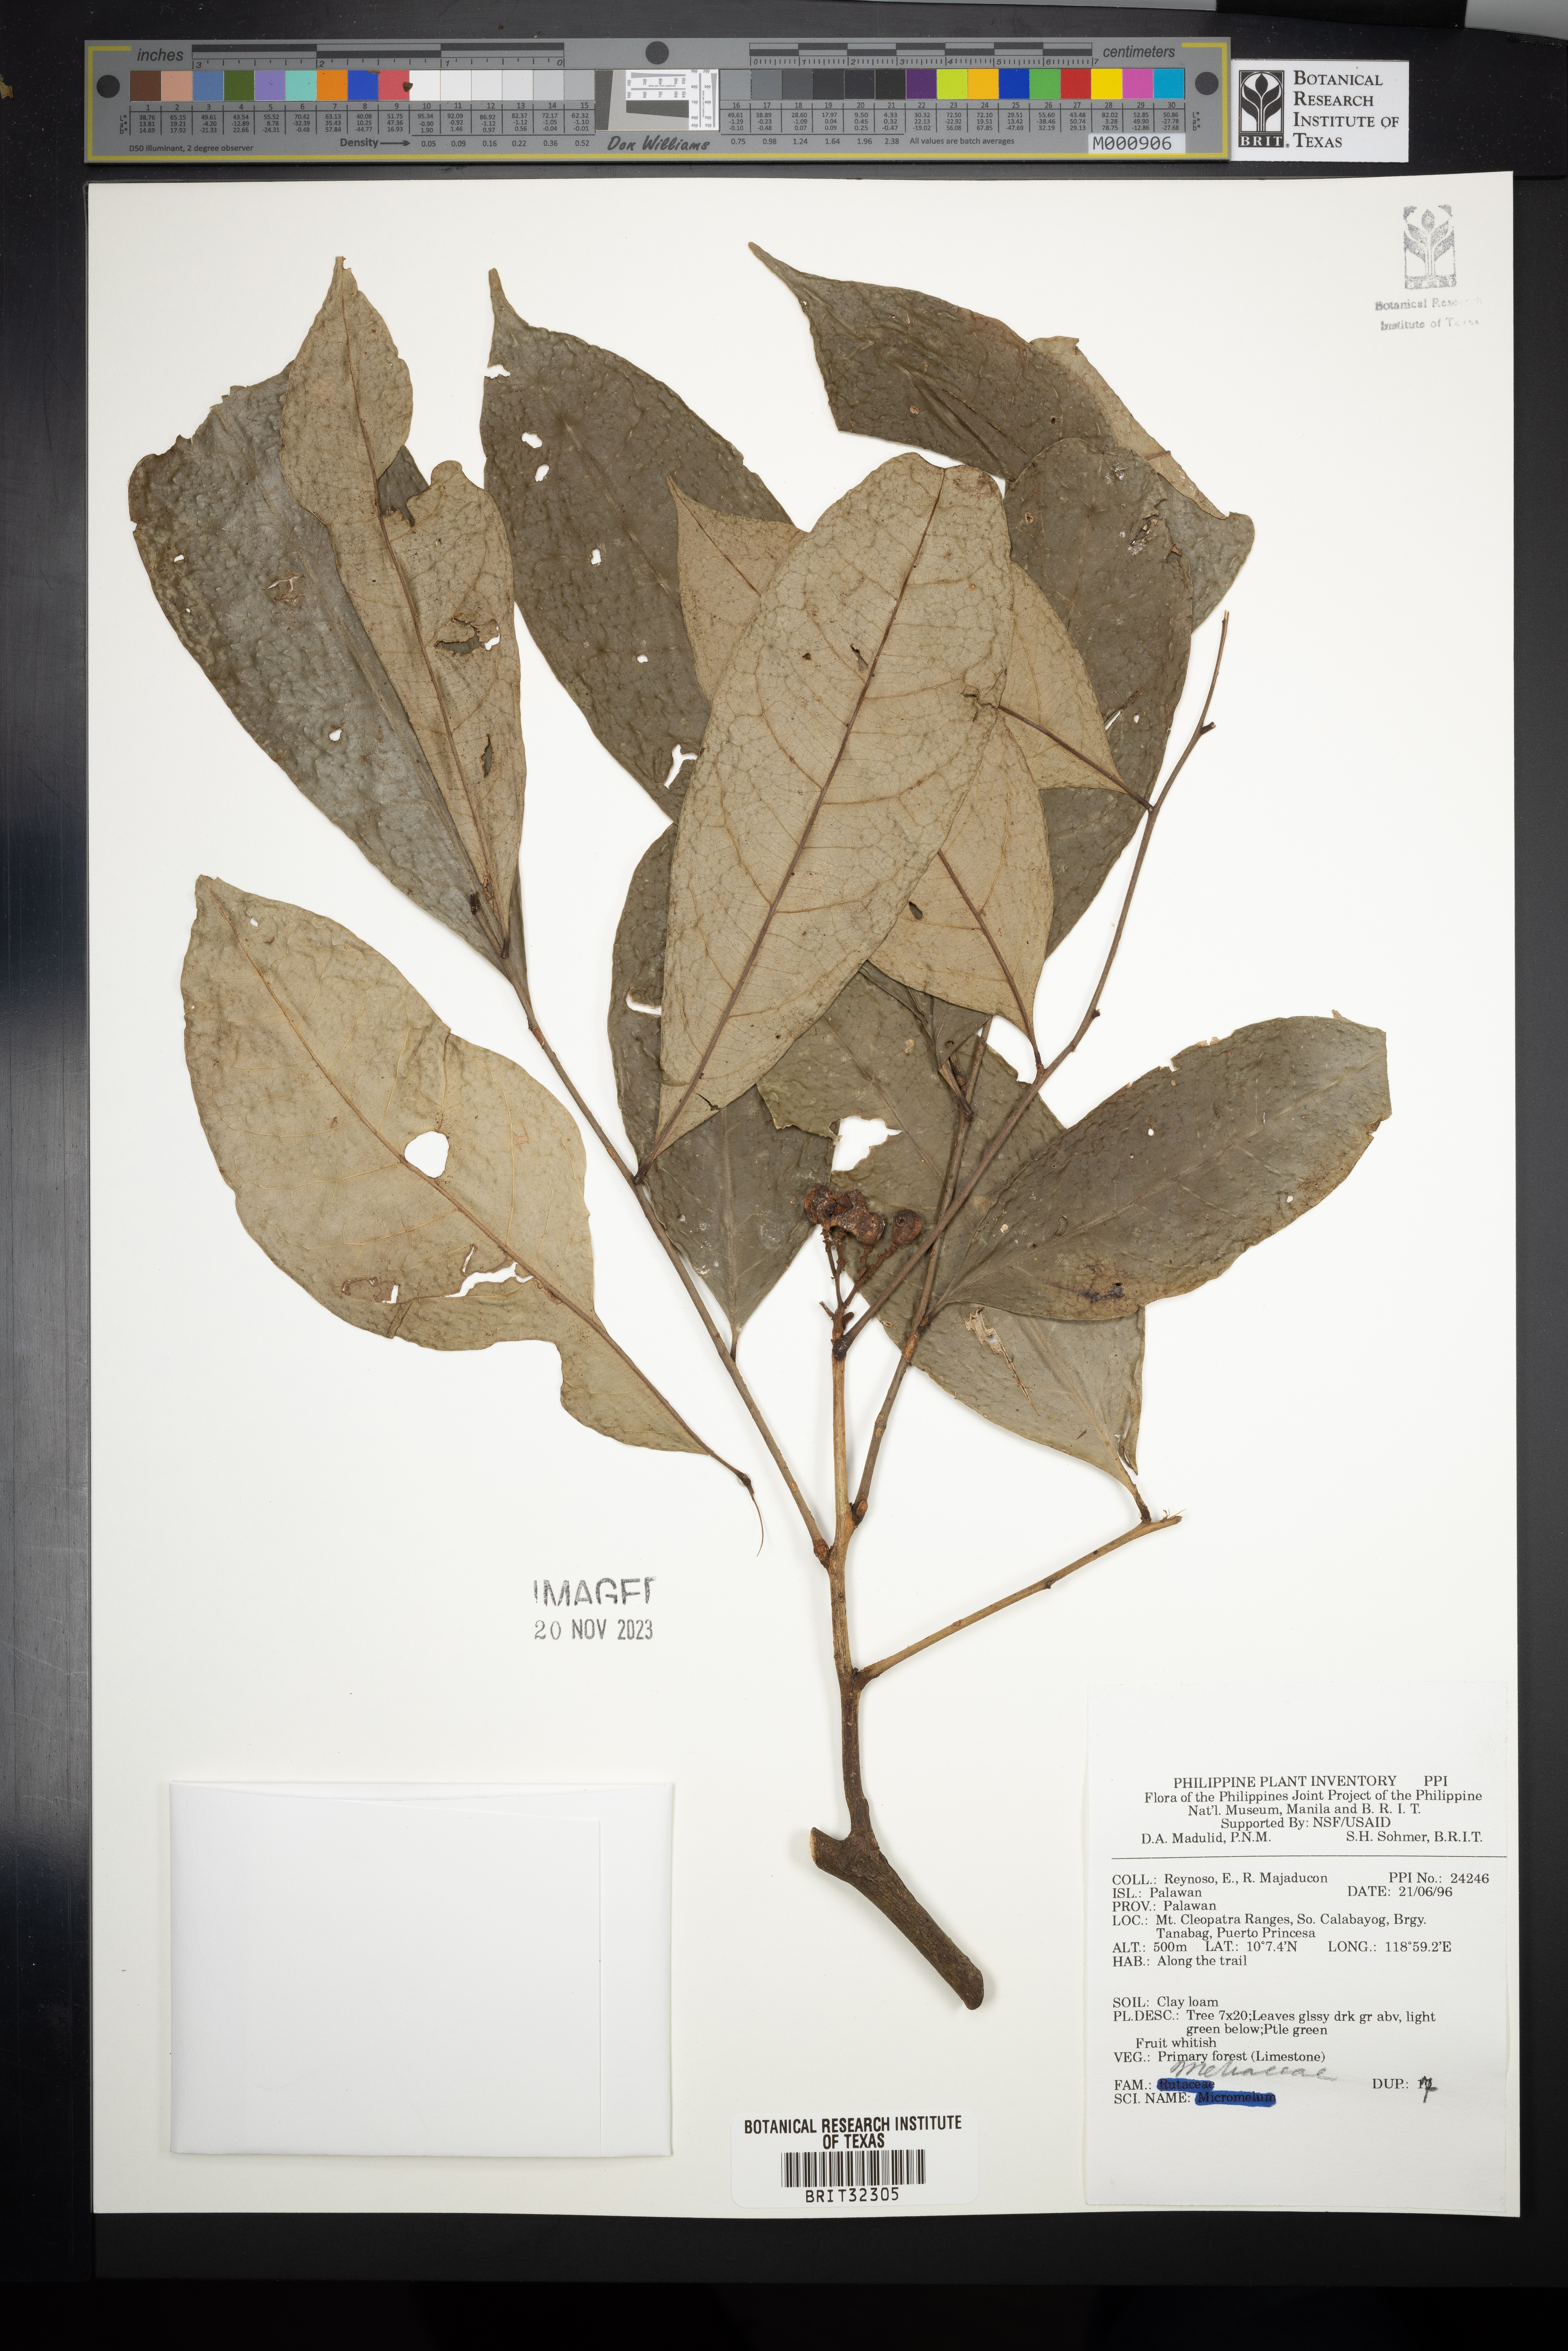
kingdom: Plantae
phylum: Tracheophyta
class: Magnoliopsida
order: Sapindales
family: Meliaceae
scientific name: Meliaceae
